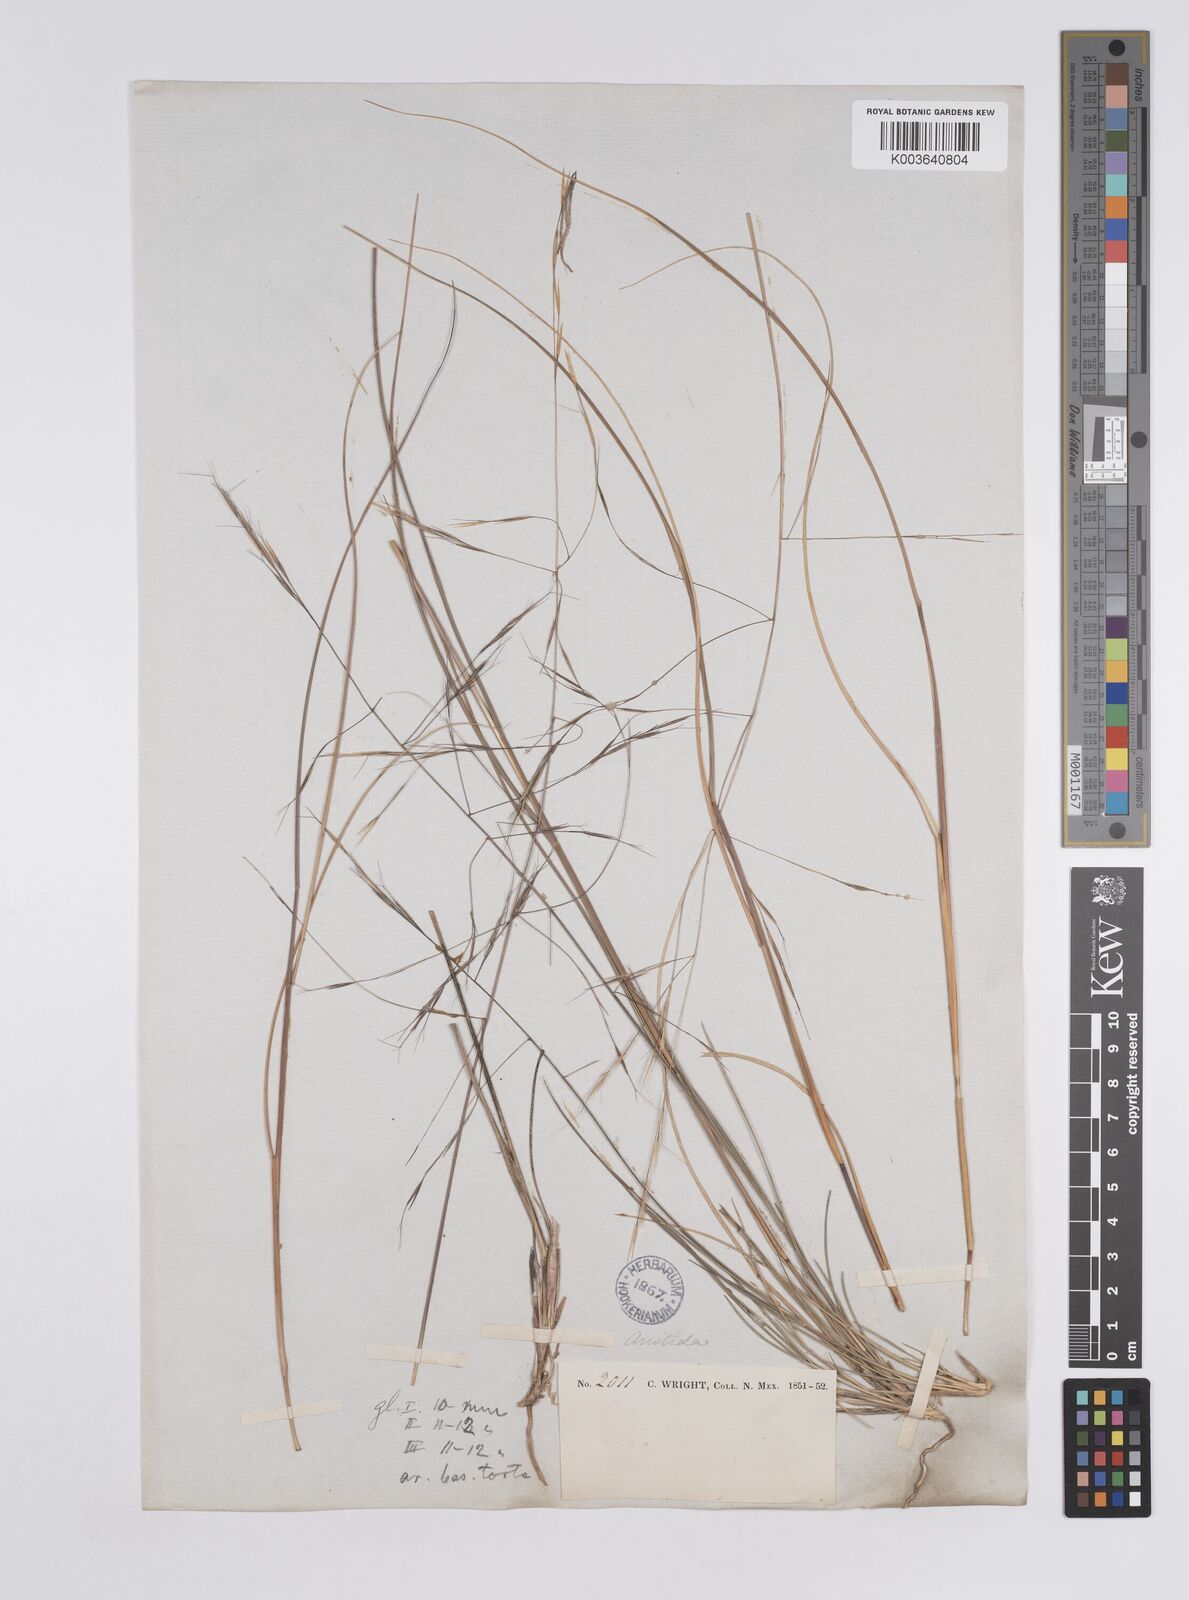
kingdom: Plantae
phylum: Tracheophyta
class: Liliopsida
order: Poales
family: Poaceae
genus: Aristida
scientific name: Aristida laxa
